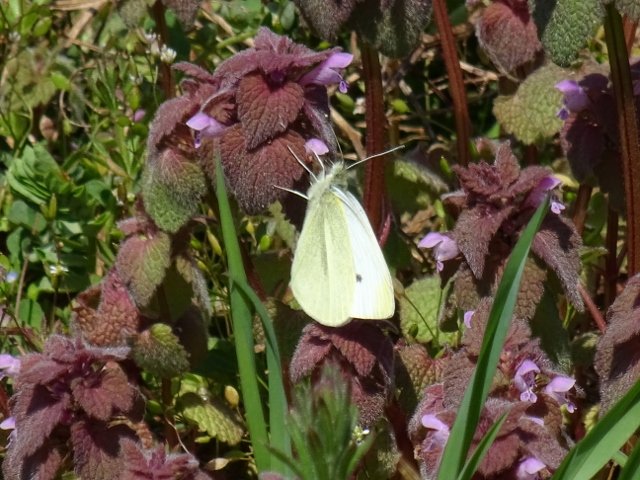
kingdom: Animalia
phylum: Arthropoda
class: Insecta
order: Lepidoptera
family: Pieridae
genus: Pieris
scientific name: Pieris rapae
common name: Cabbage White
